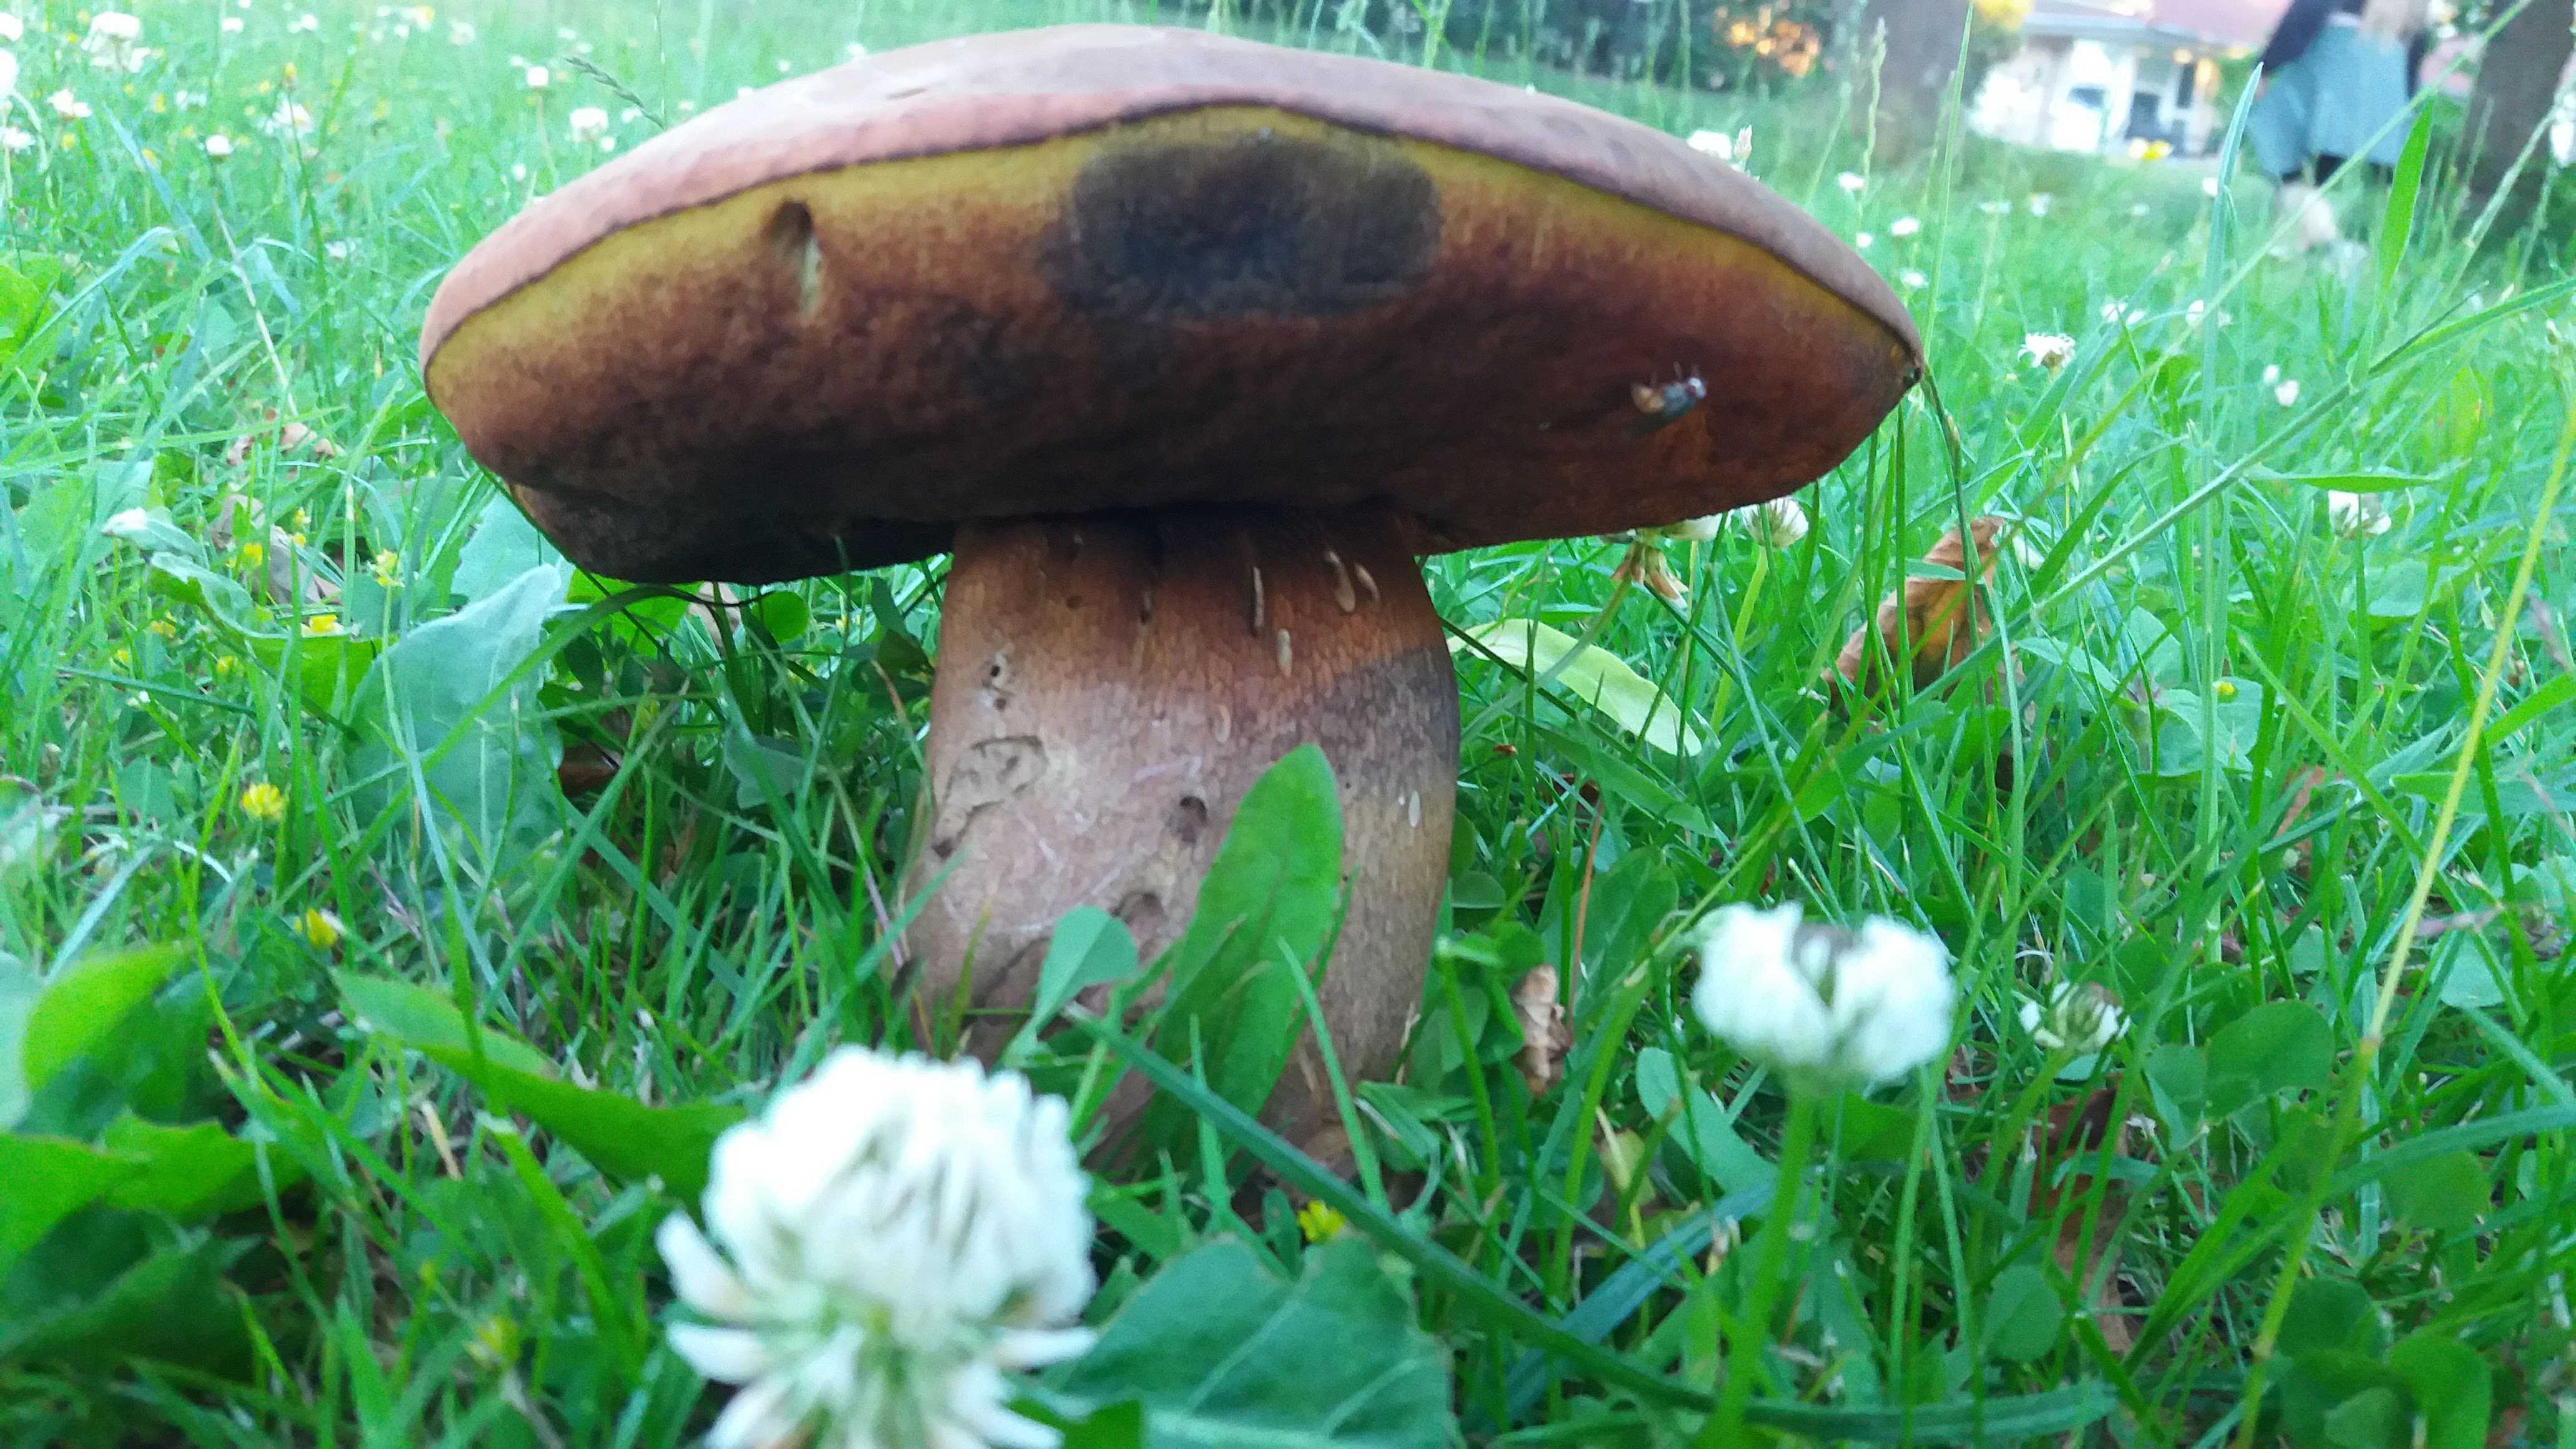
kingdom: Fungi
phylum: Basidiomycota
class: Agaricomycetes
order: Boletales
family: Boletaceae
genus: Suillellus
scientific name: Suillellus luridus
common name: netstokket indigorørhat
